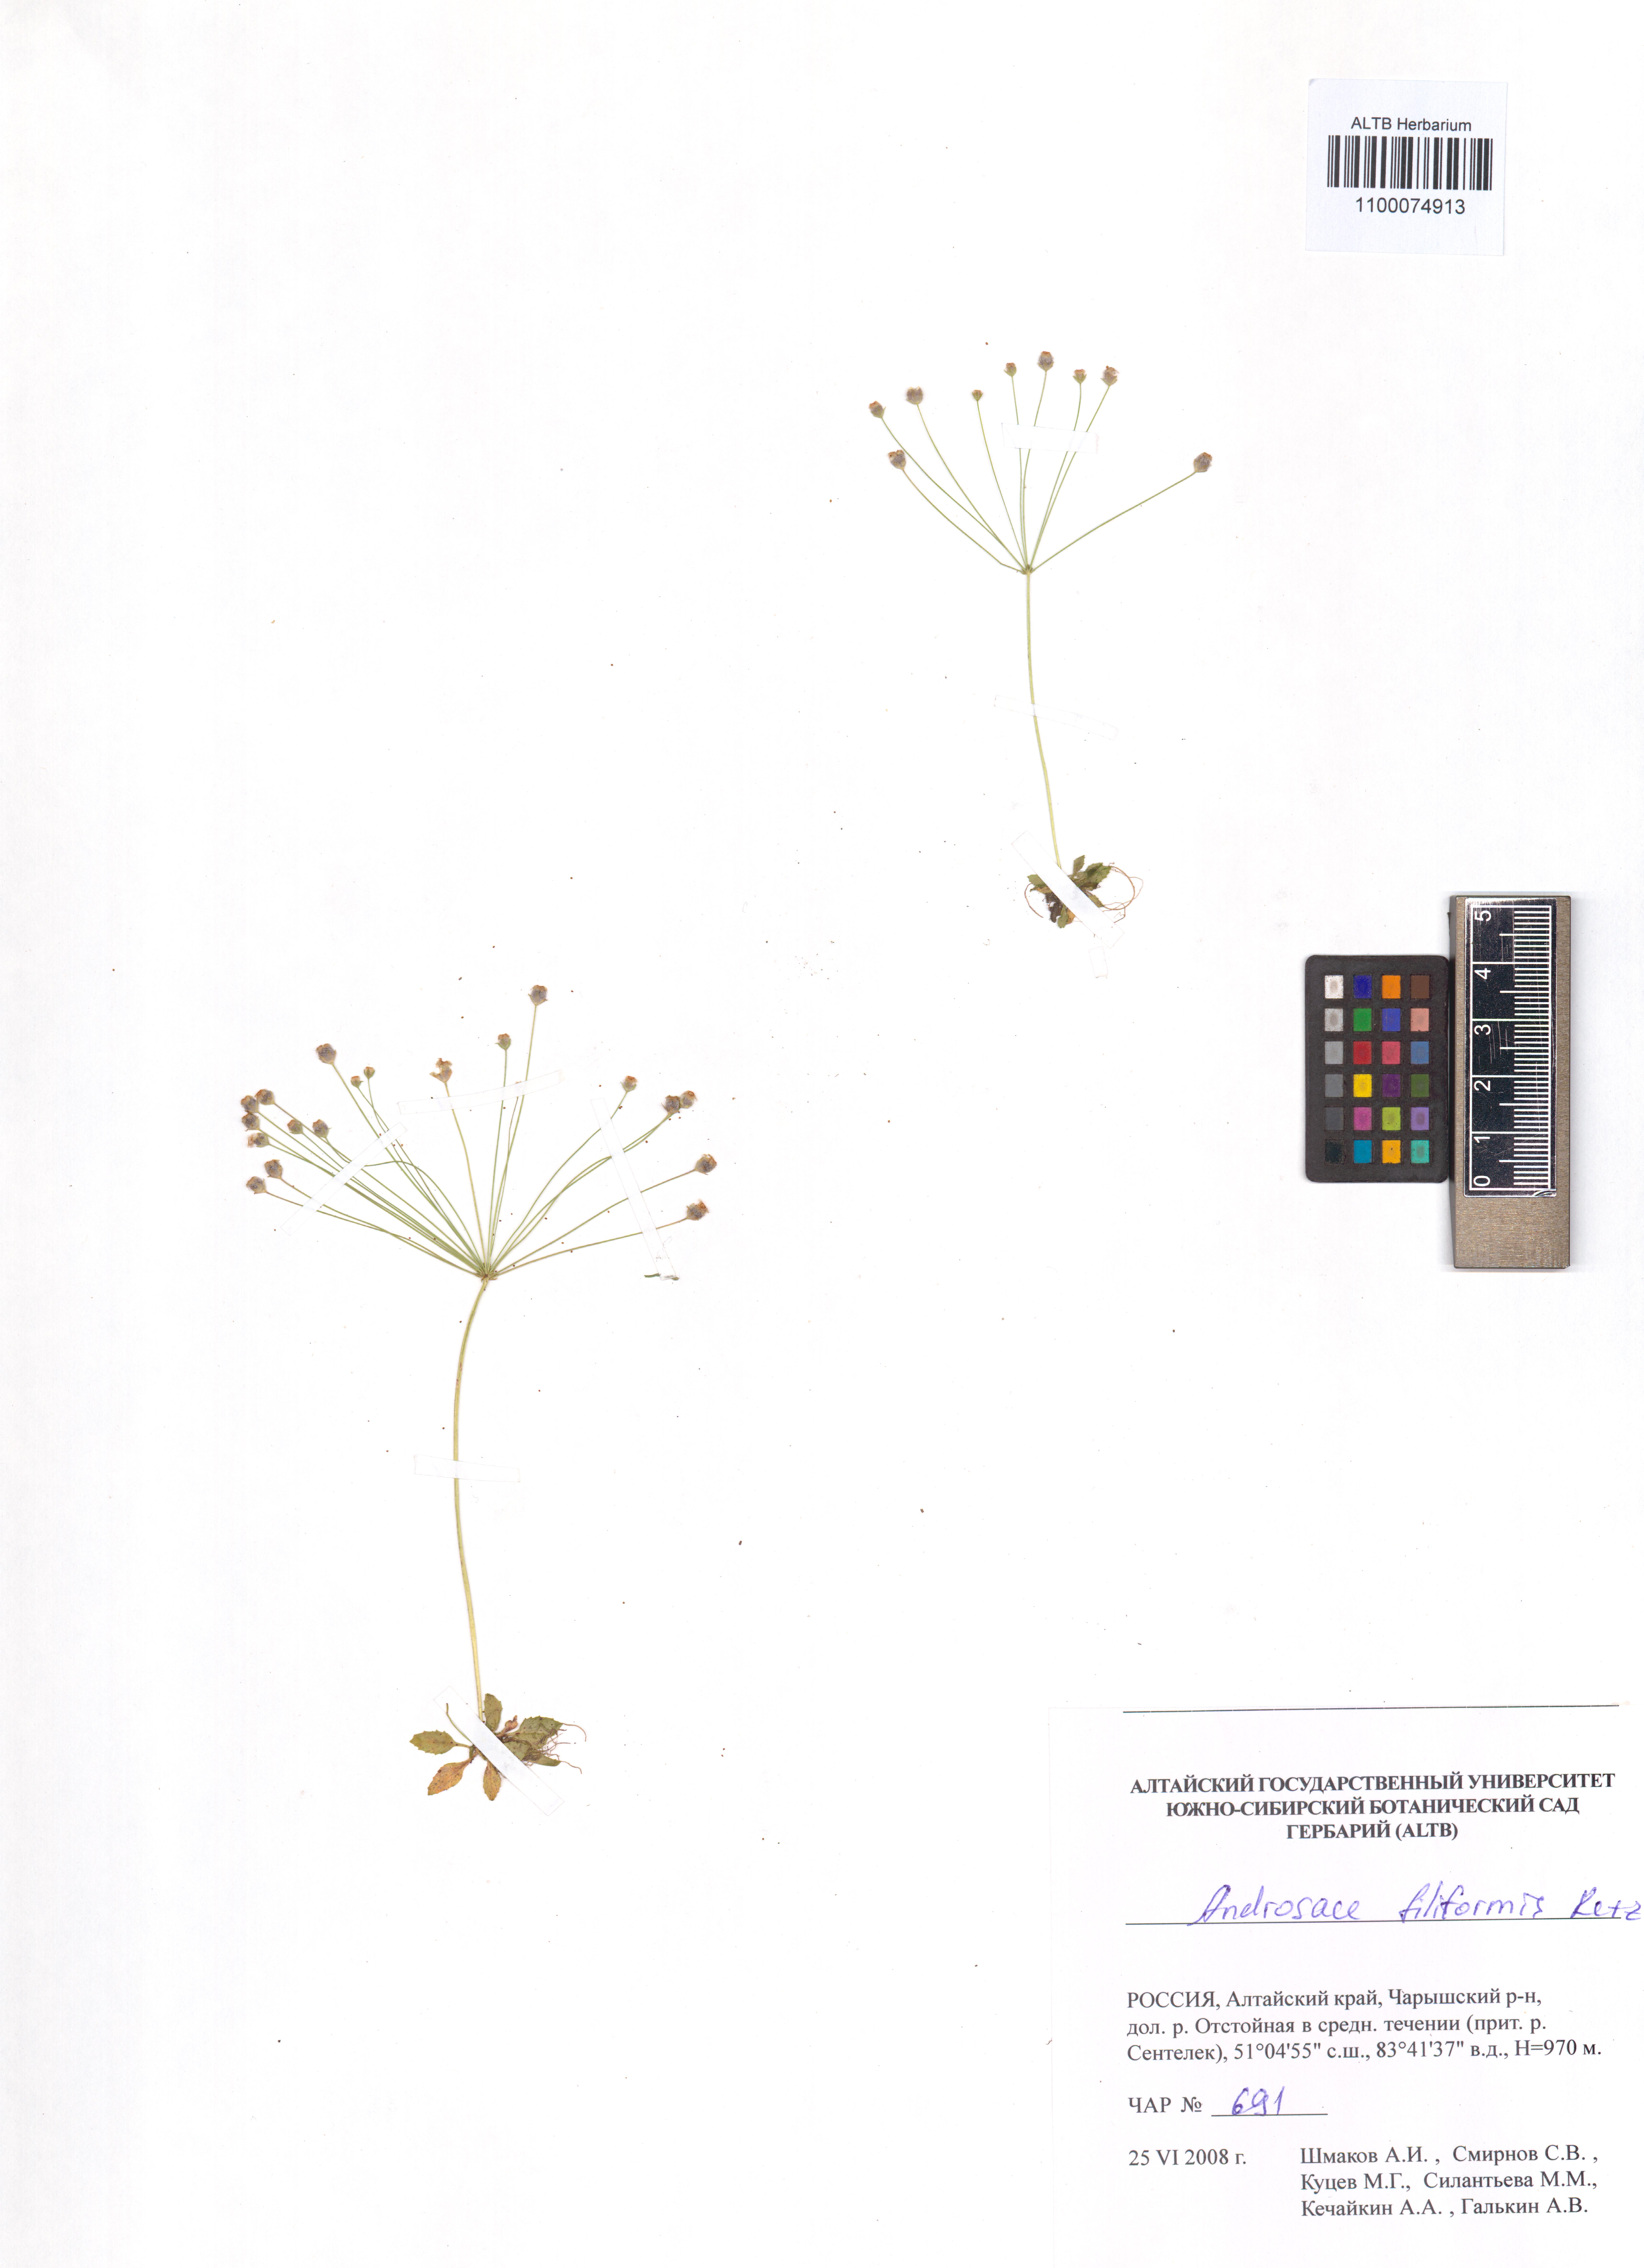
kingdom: Plantae
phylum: Tracheophyta
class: Magnoliopsida
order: Ericales
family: Primulaceae
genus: Androsace
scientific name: Androsace filiformis
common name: Filiform rock jasmine
